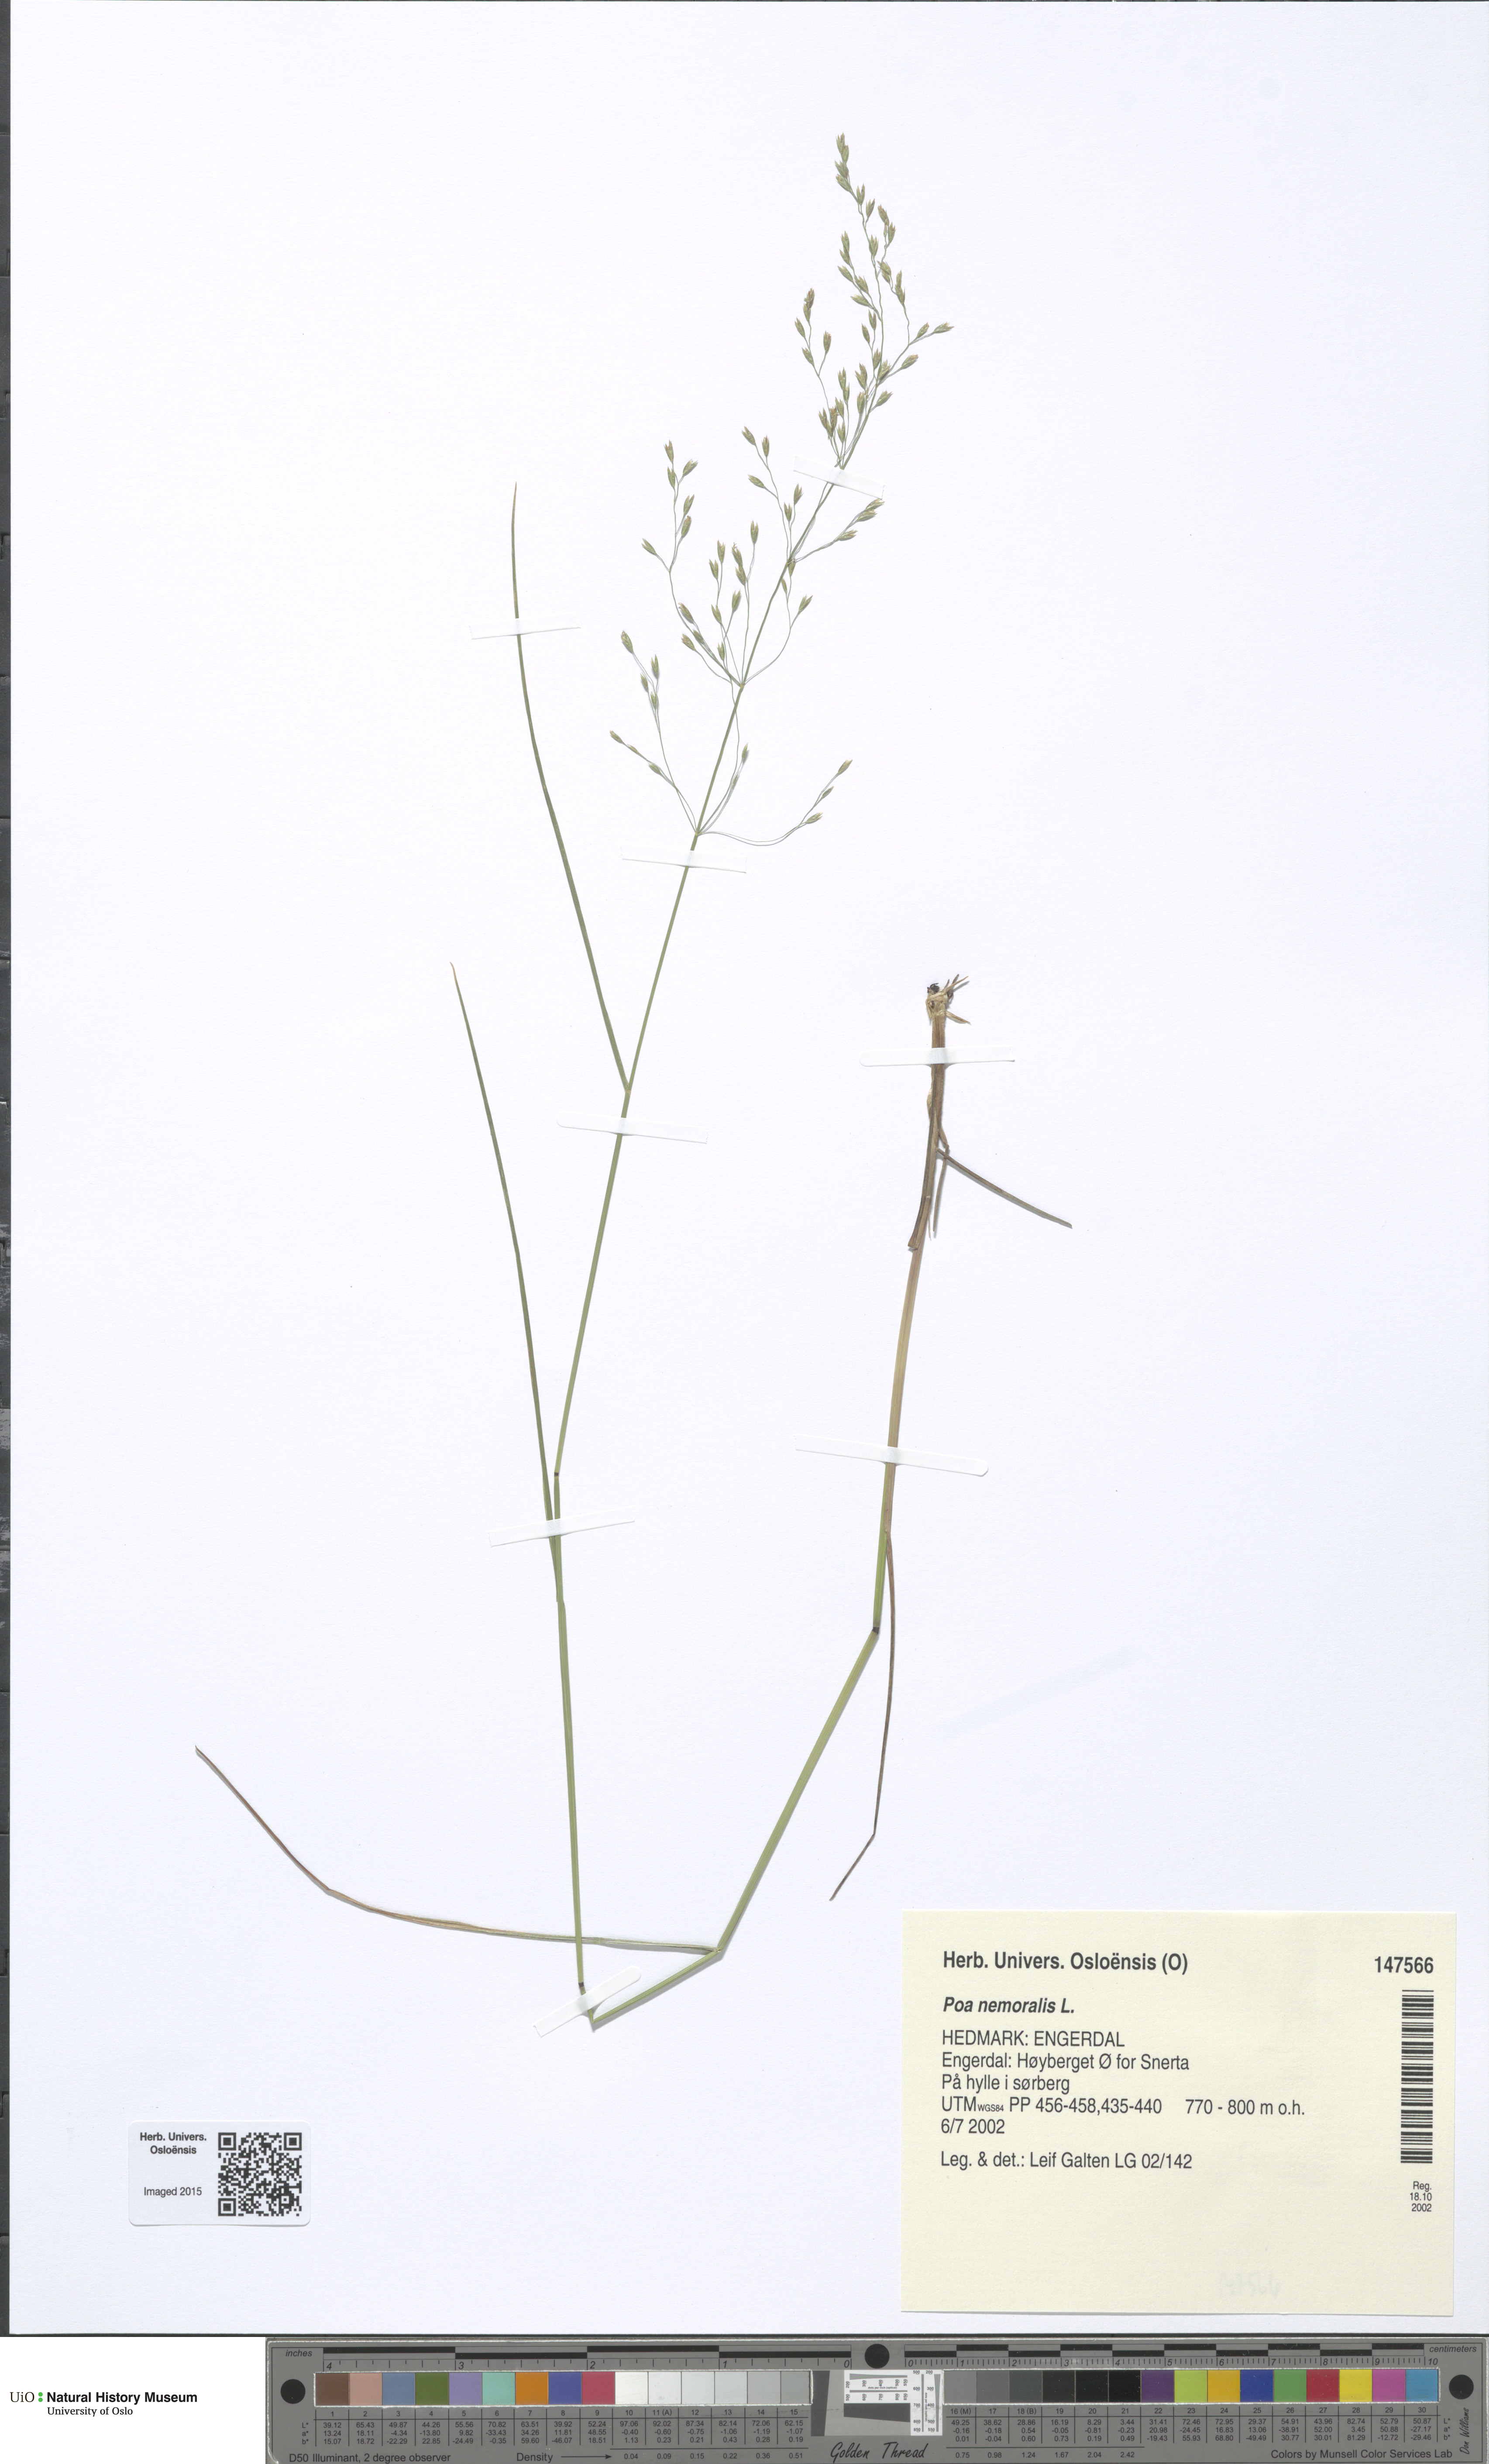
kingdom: Plantae
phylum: Tracheophyta
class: Liliopsida
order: Poales
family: Poaceae
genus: Poa
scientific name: Poa nemoralis
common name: Wood bluegrass
